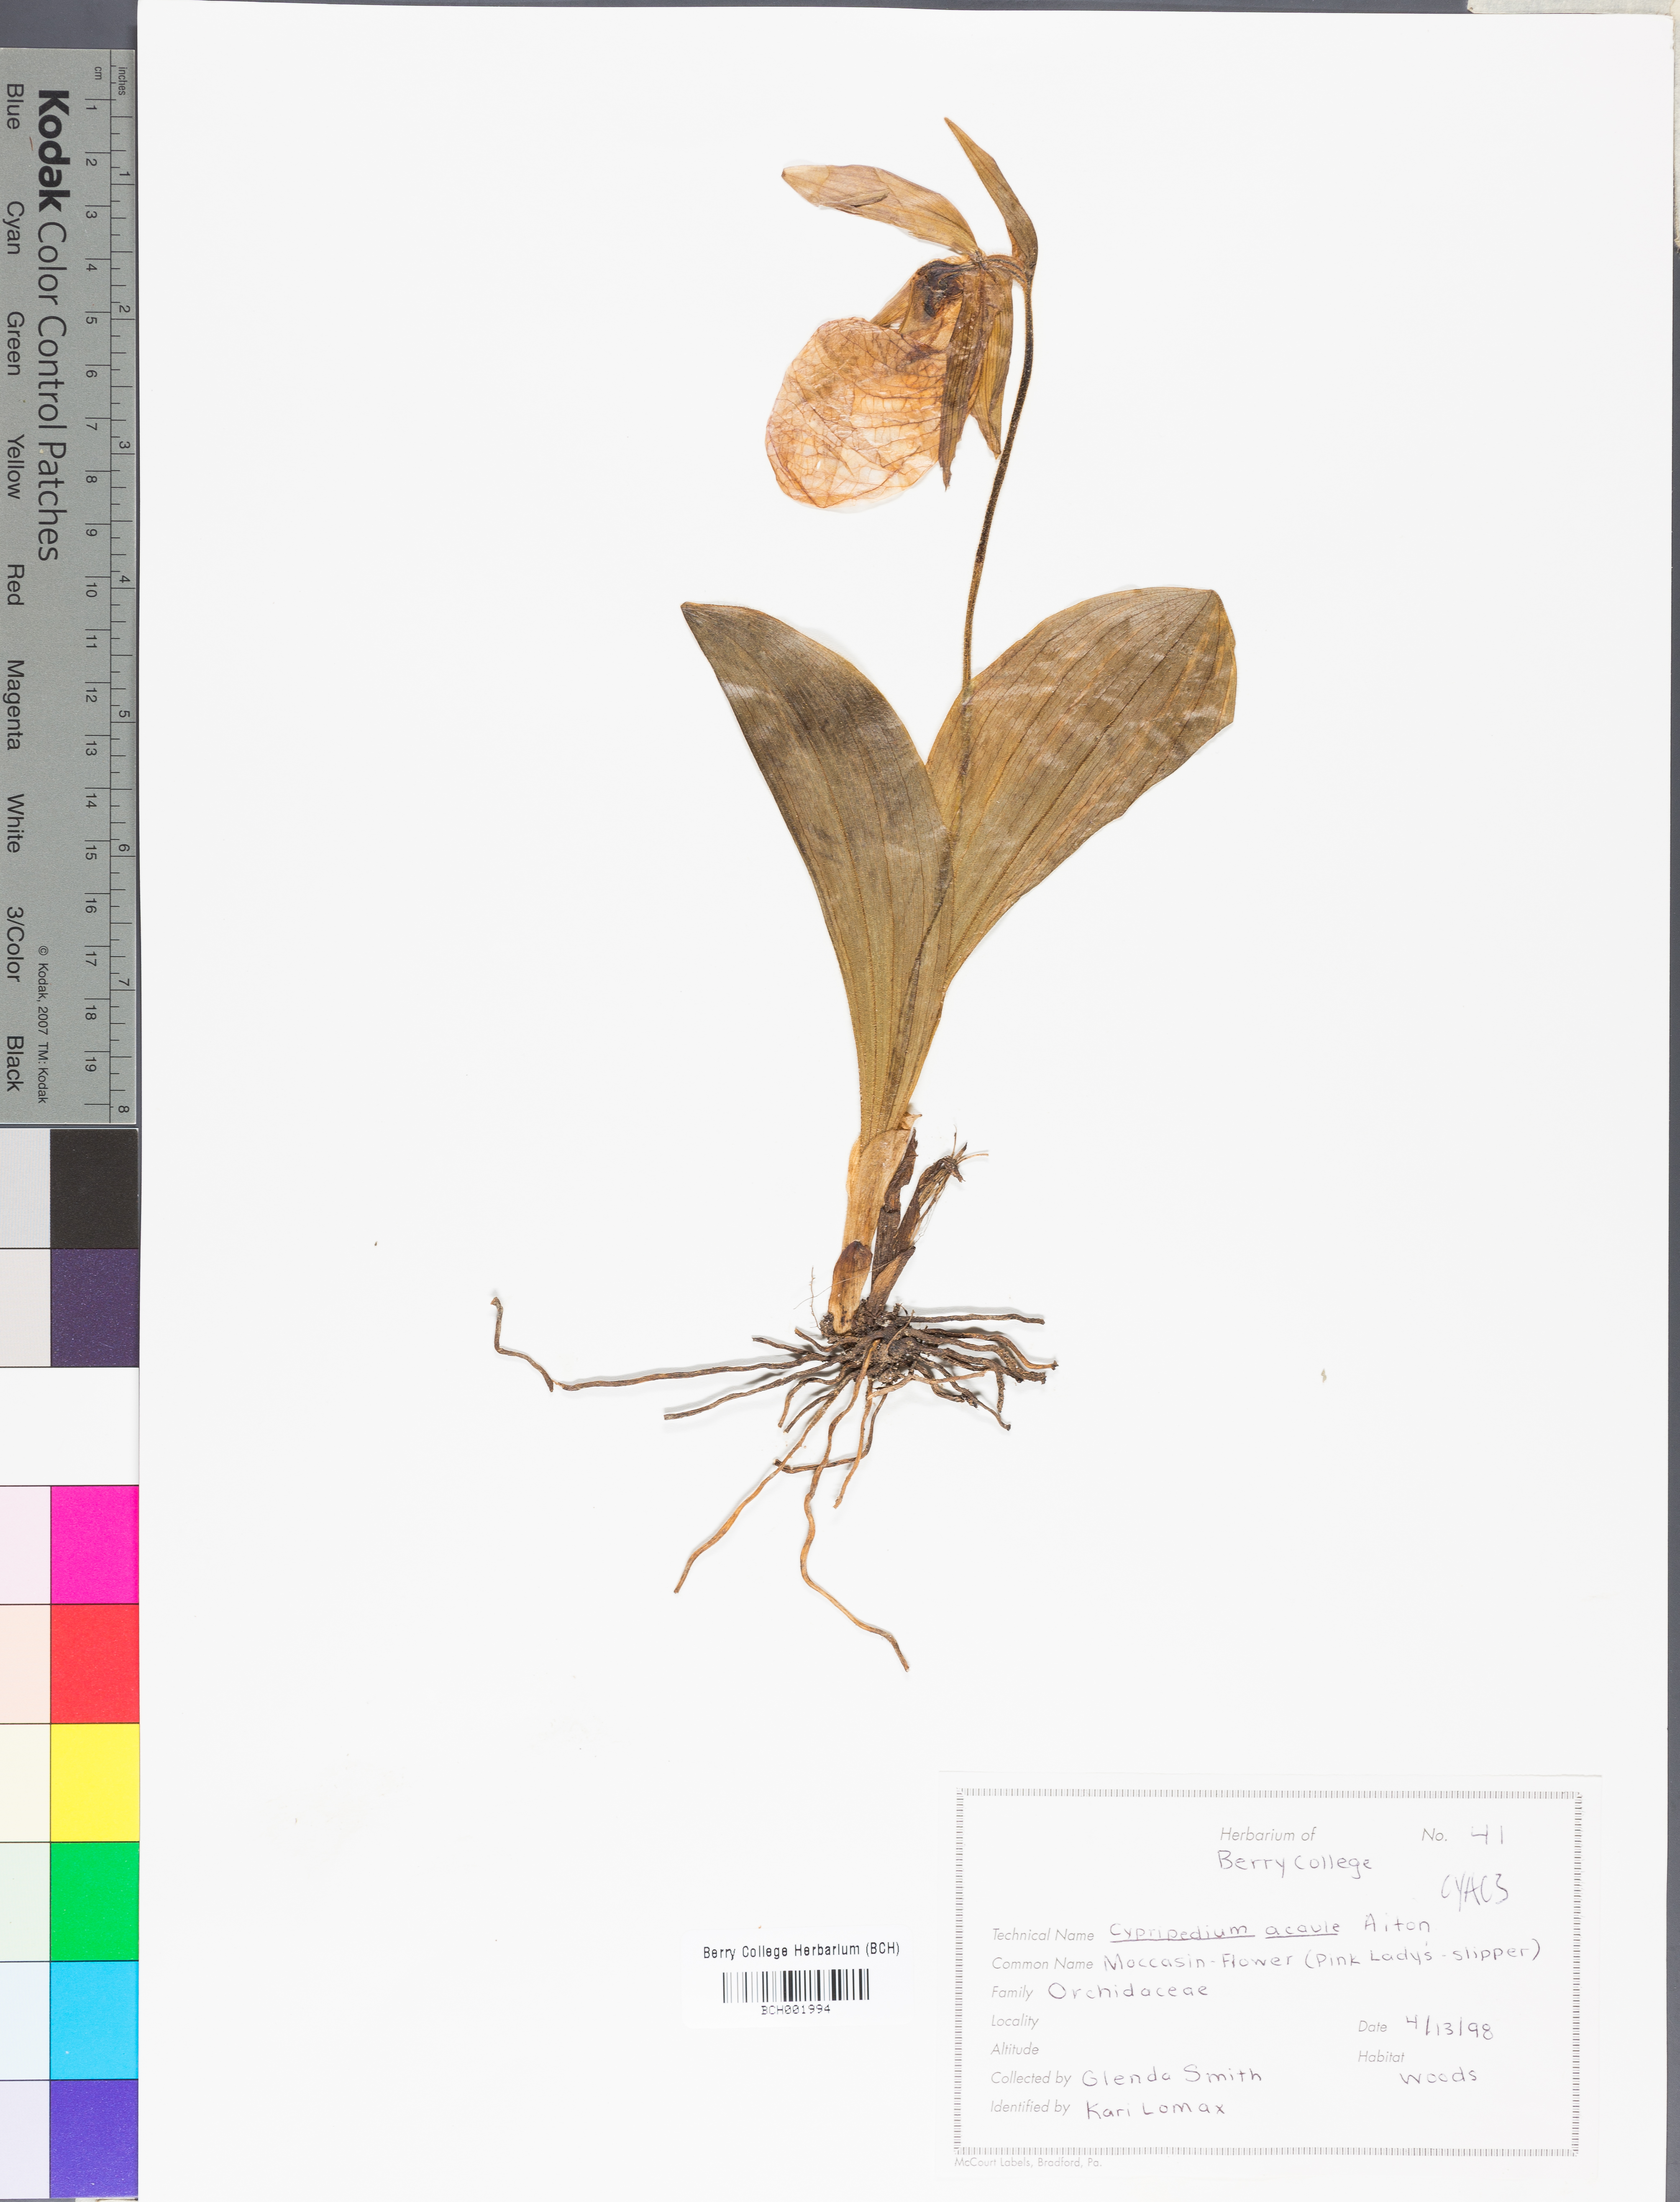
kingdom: Plantae
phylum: Tracheophyta
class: Liliopsida
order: Asparagales
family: Orchidaceae
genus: Cypripedium
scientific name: Cypripedium acaule
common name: Pink lady's-slipper
